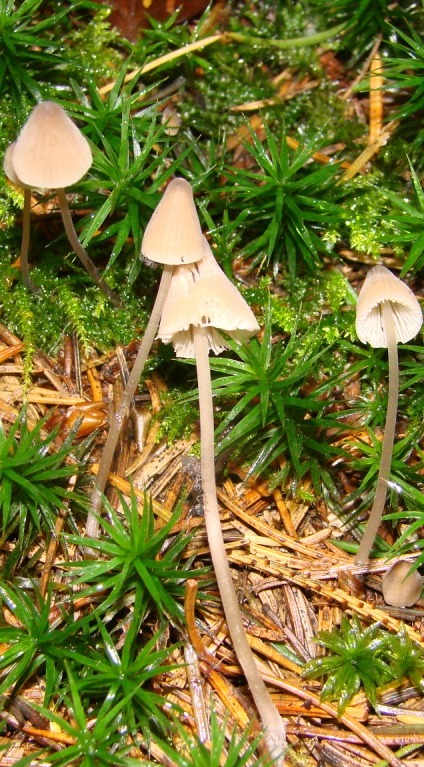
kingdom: Fungi
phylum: Basidiomycota
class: Agaricomycetes
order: Agaricales
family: Mycenaceae
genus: Mycena
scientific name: Mycena leptocephala
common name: klor-huesvamp
